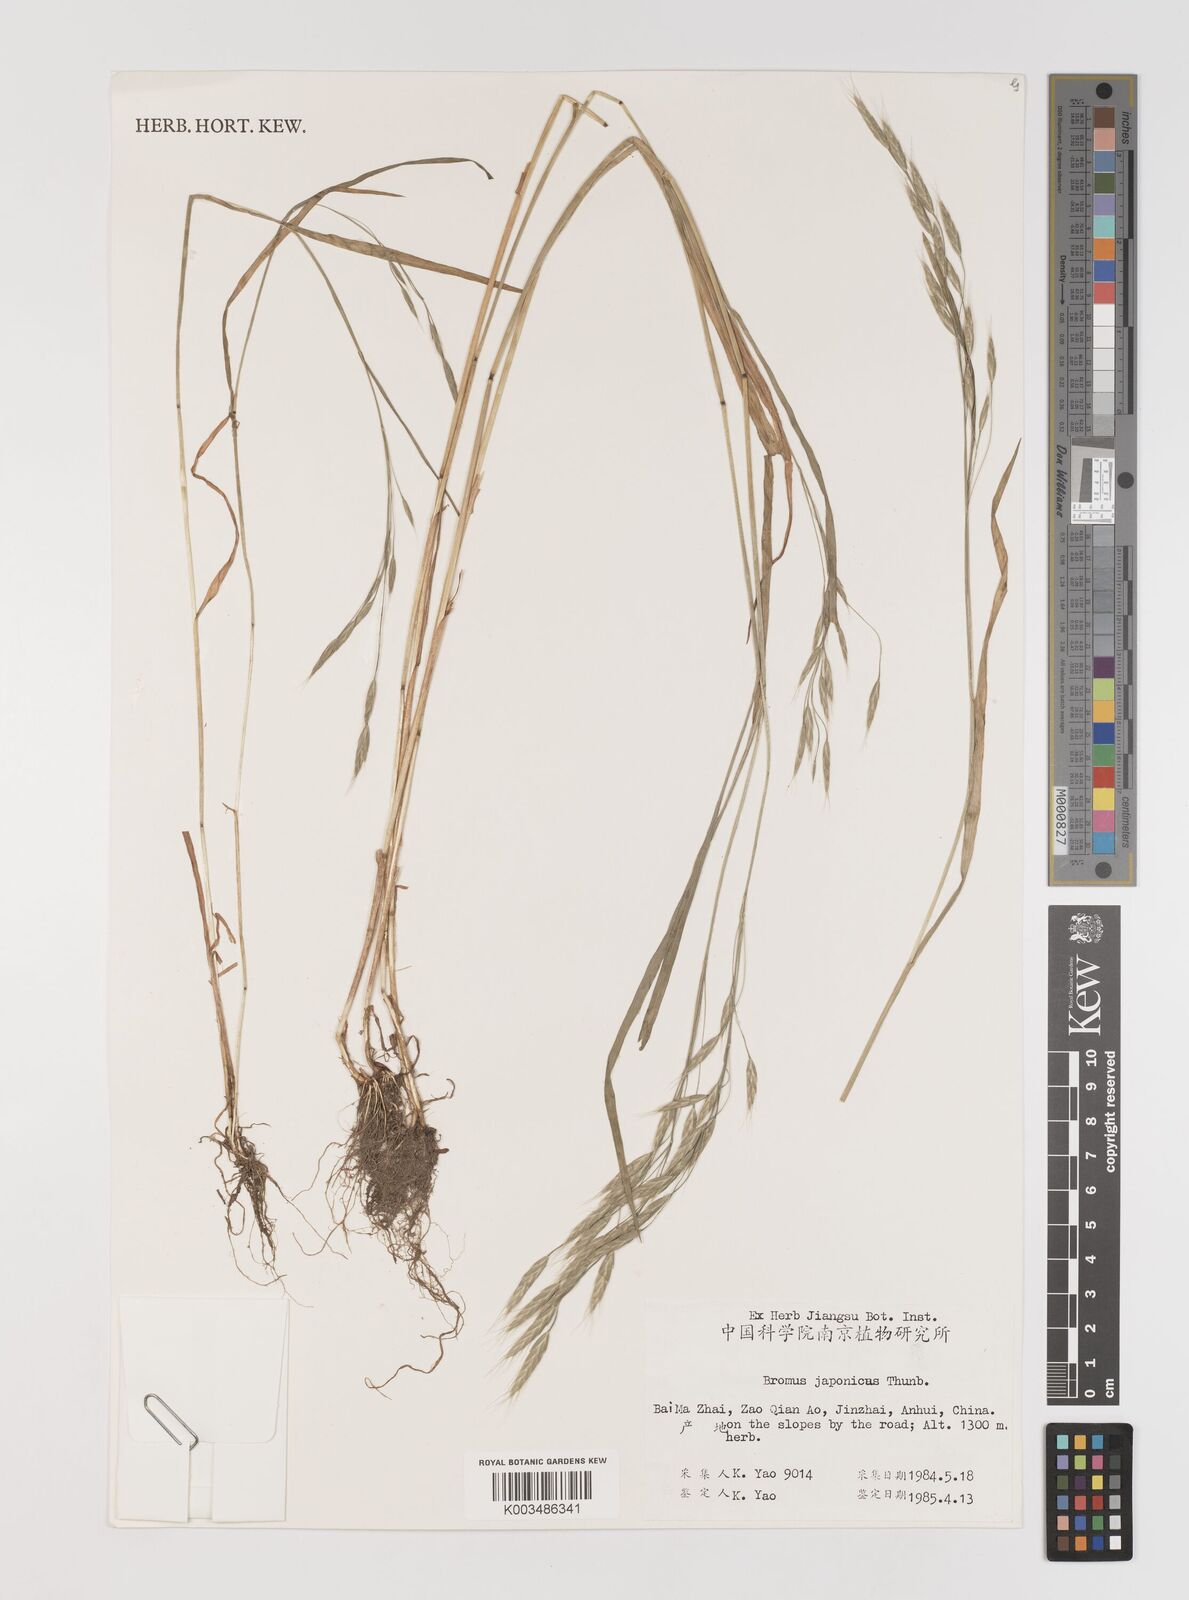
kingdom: Plantae
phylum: Tracheophyta
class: Liliopsida
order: Poales
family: Poaceae
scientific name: Poaceae
